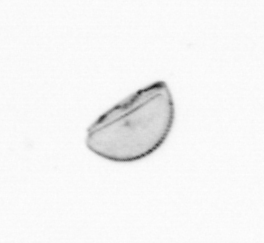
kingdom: Chromista
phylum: Ochrophyta
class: Bacillariophyceae
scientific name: Bacillariophyceae
